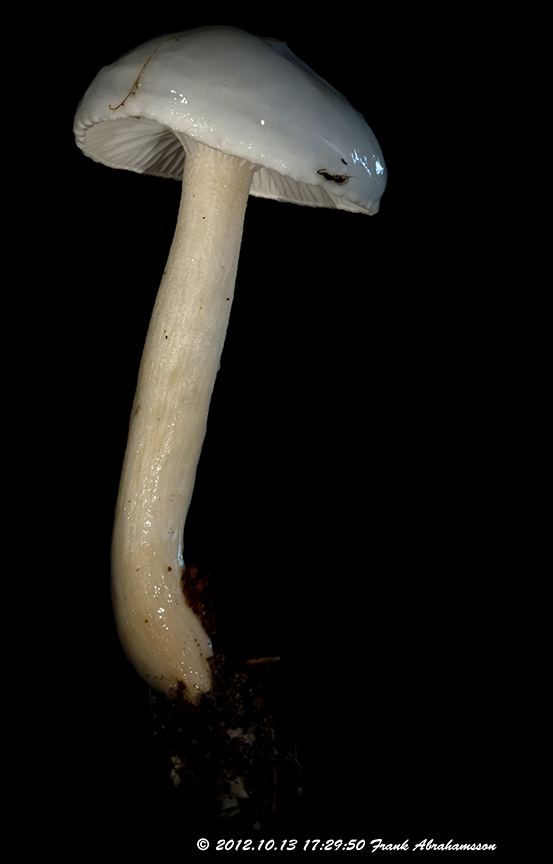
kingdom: Fungi
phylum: Basidiomycota
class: Agaricomycetes
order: Agaricales
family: Hygrophoraceae
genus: Hygrophorus
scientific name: Hygrophorus eburneus
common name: elfenbens-sneglehat
